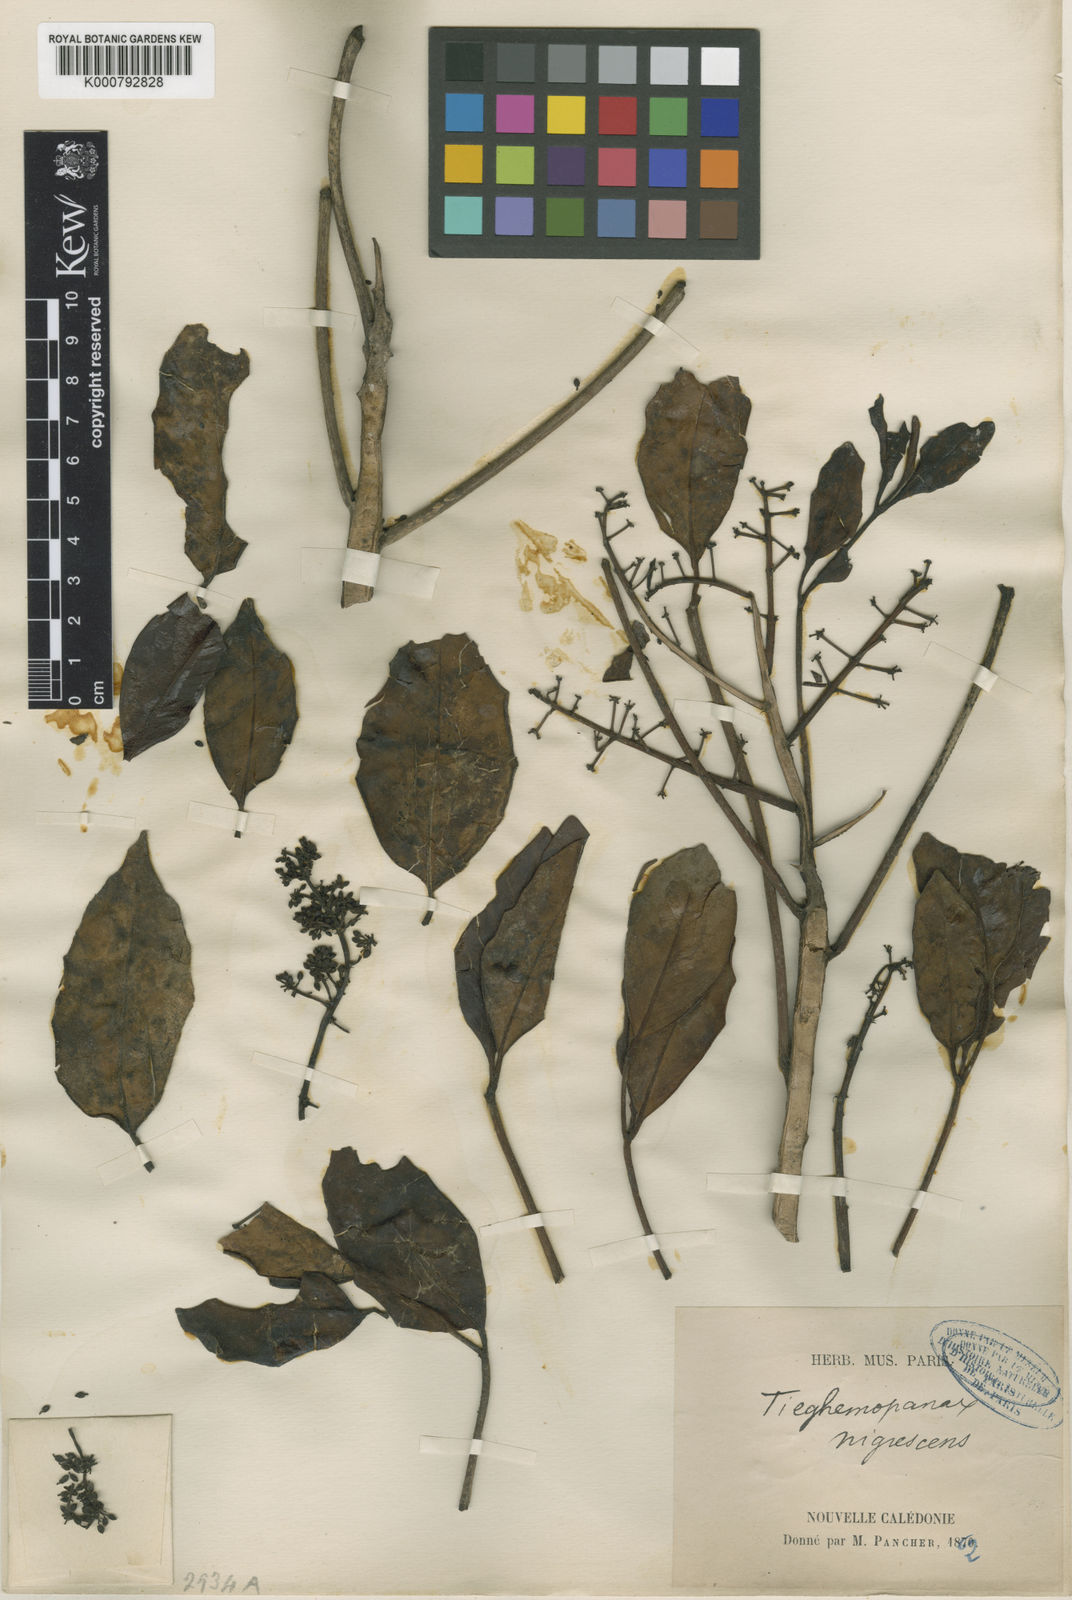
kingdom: Plantae
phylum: Tracheophyta
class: Magnoliopsida
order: Apiales
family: Araliaceae
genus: Polyscias
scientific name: Polyscias
